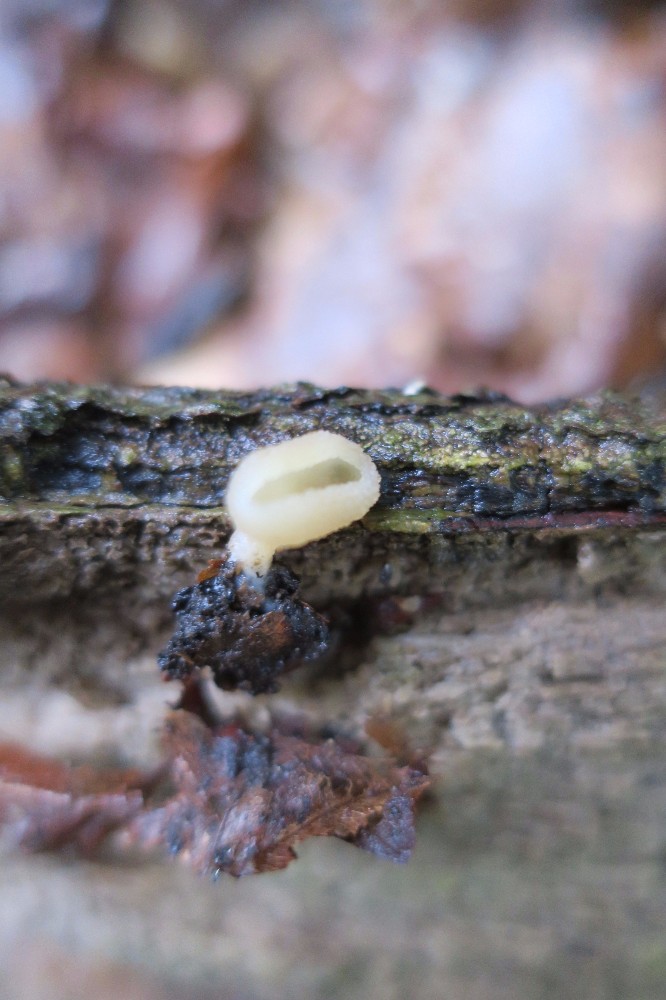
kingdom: Fungi
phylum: Ascomycota
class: Pezizomycetes
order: Pezizales
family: Pezizaceae
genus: Peziza
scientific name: Peziza
